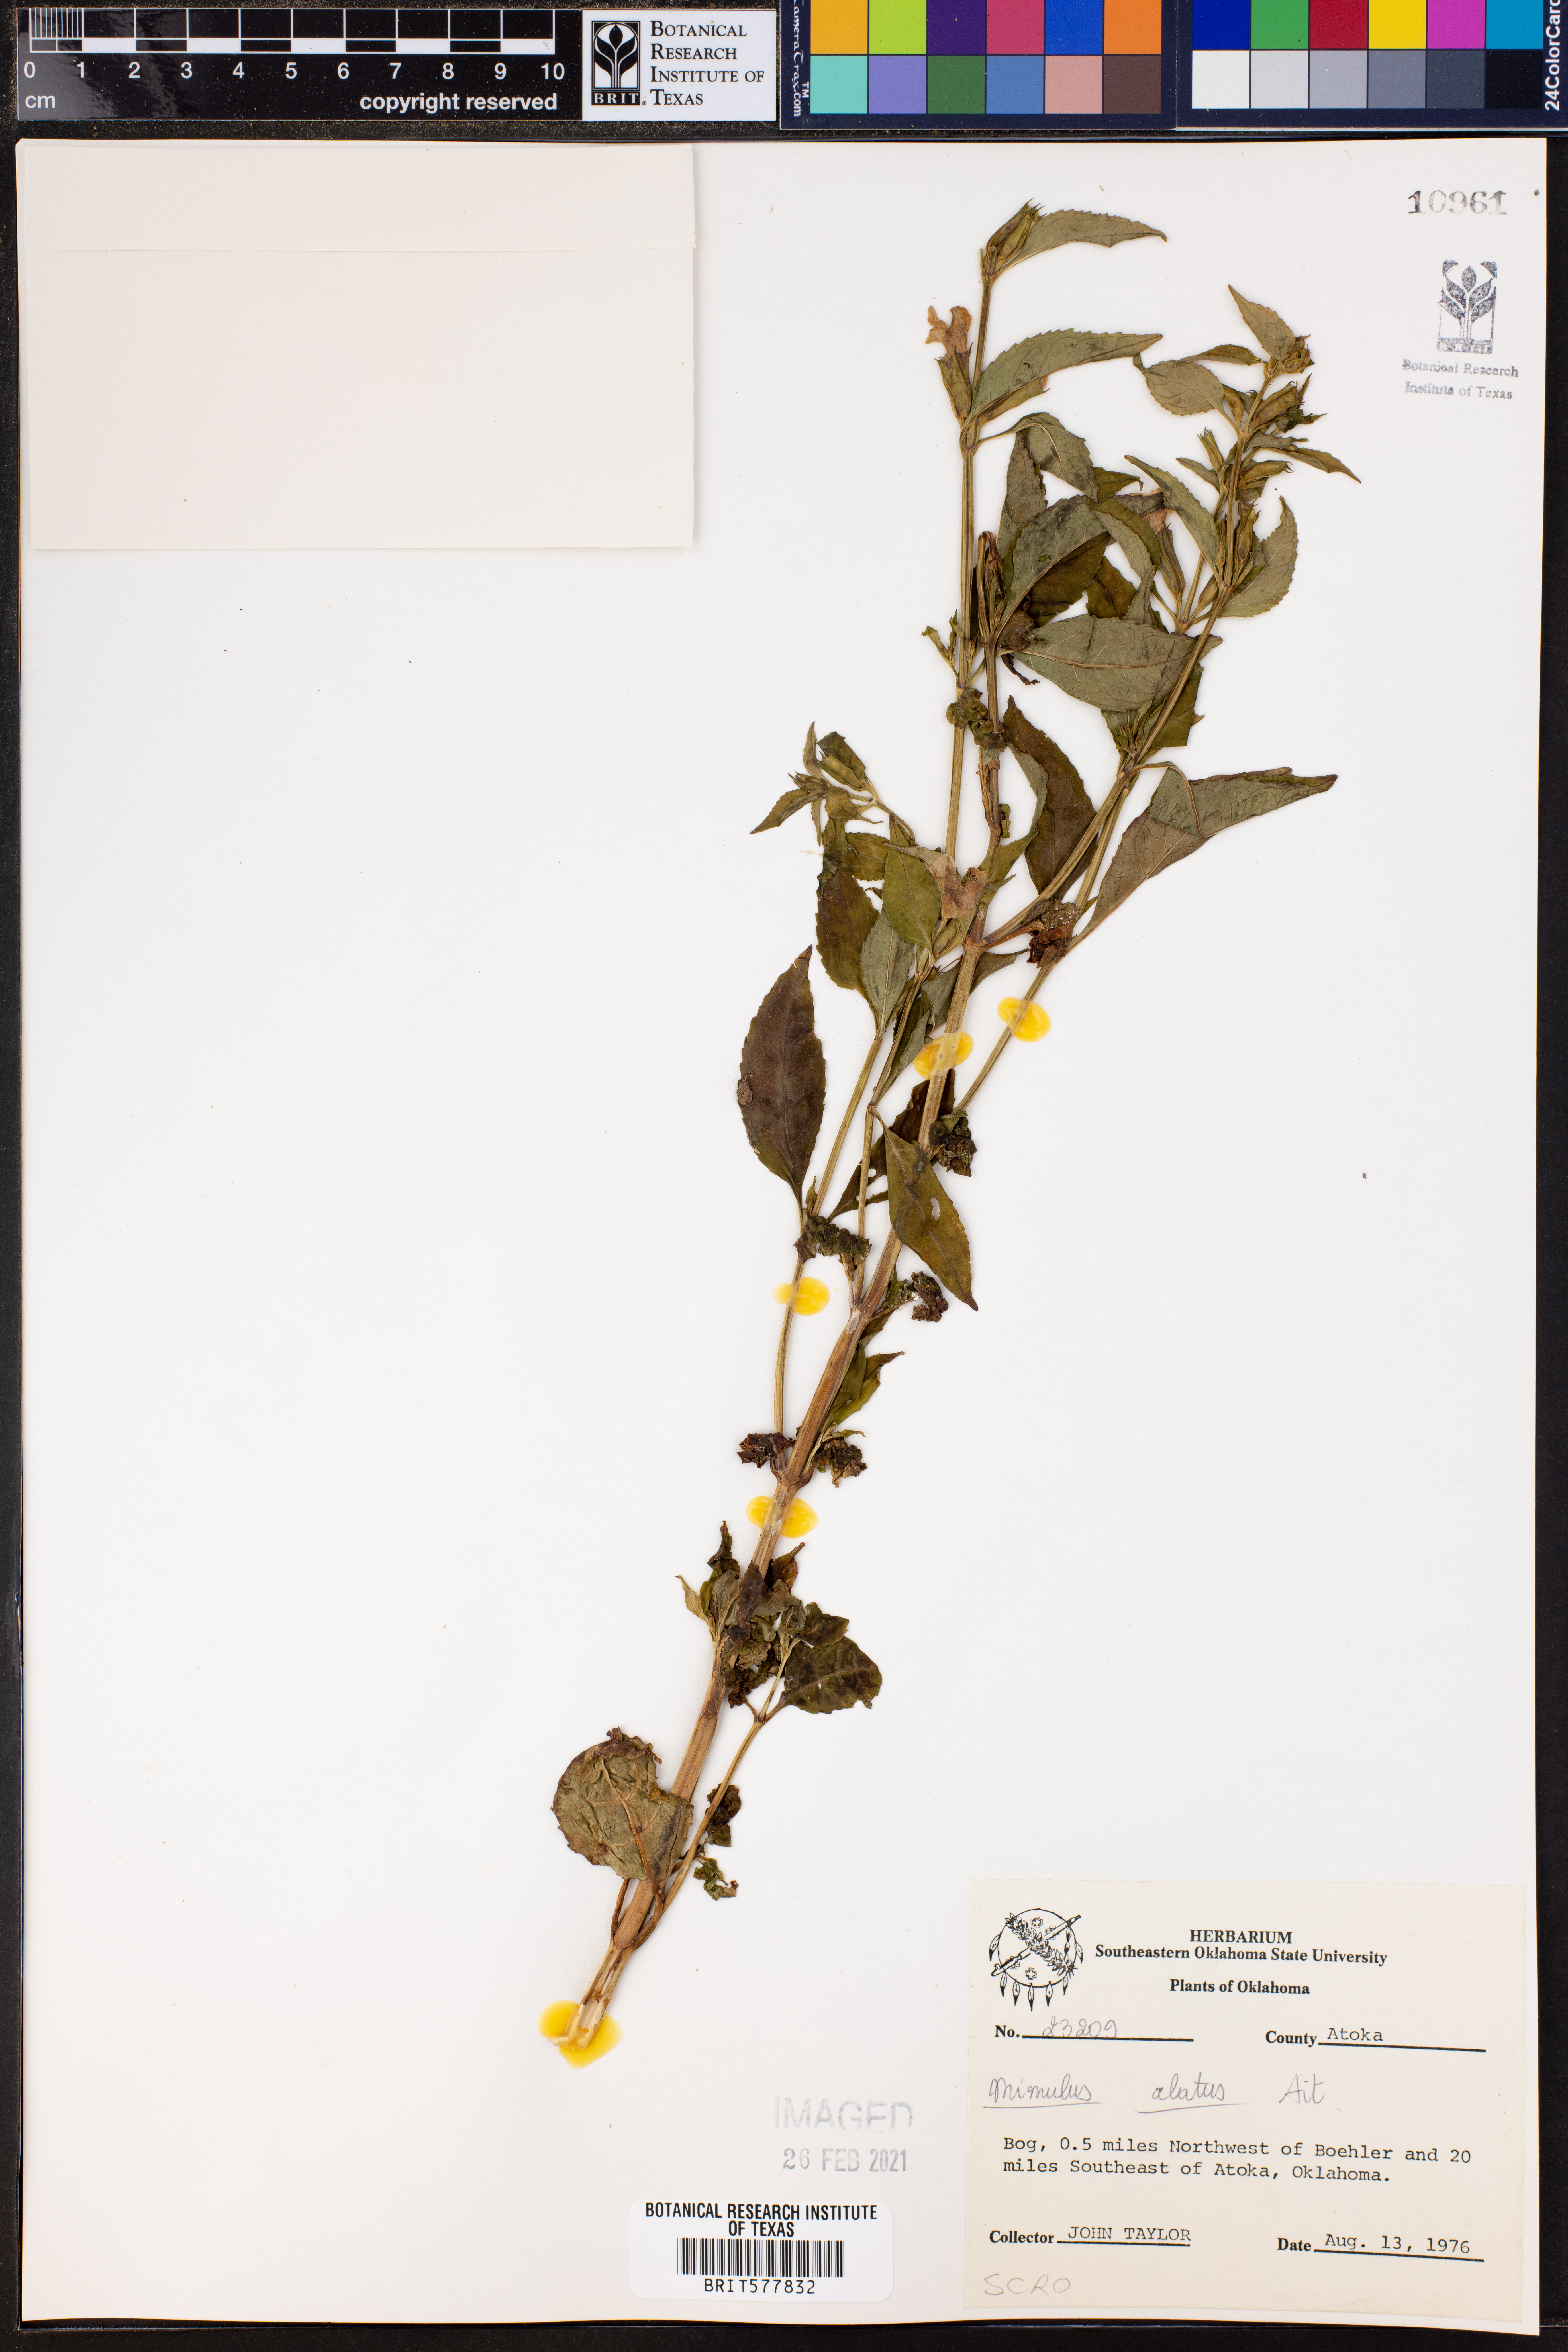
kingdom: Plantae
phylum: Tracheophyta
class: Magnoliopsida
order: Lamiales
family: Phrymaceae
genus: Mimulus
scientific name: Mimulus alatus
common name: Sharp-wing monkey-flower
